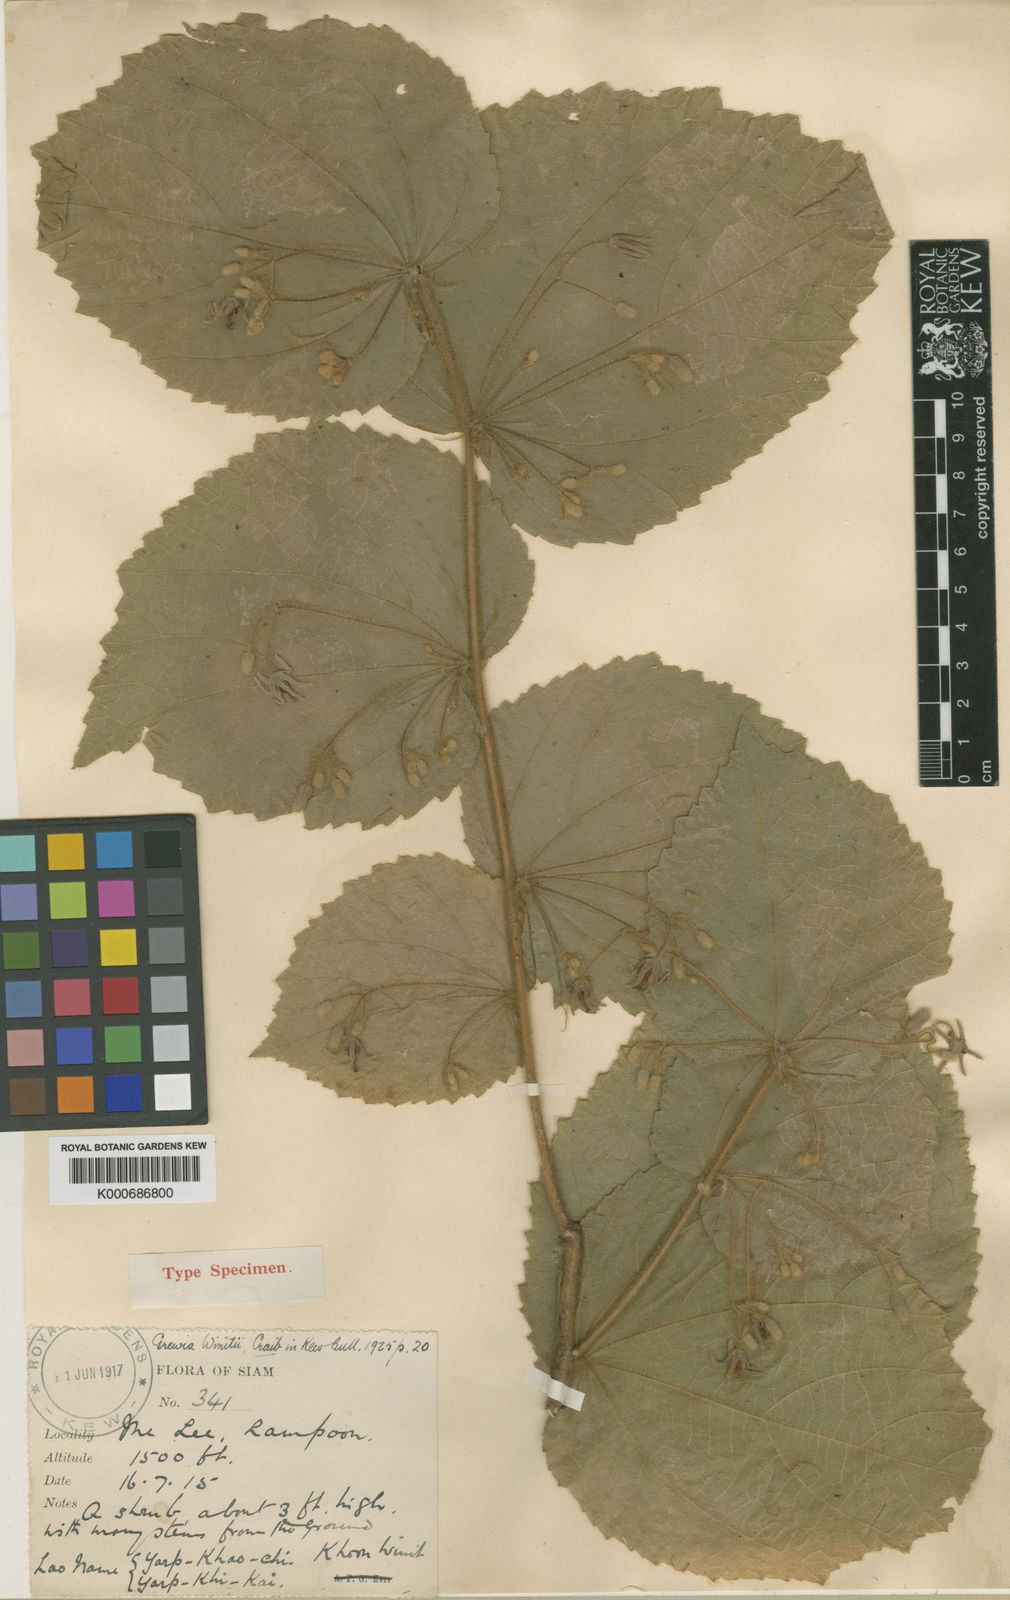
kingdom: Plantae
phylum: Tracheophyta
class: Magnoliopsida
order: Malvales
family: Malvaceae
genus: Grewia
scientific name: Grewia winitii
